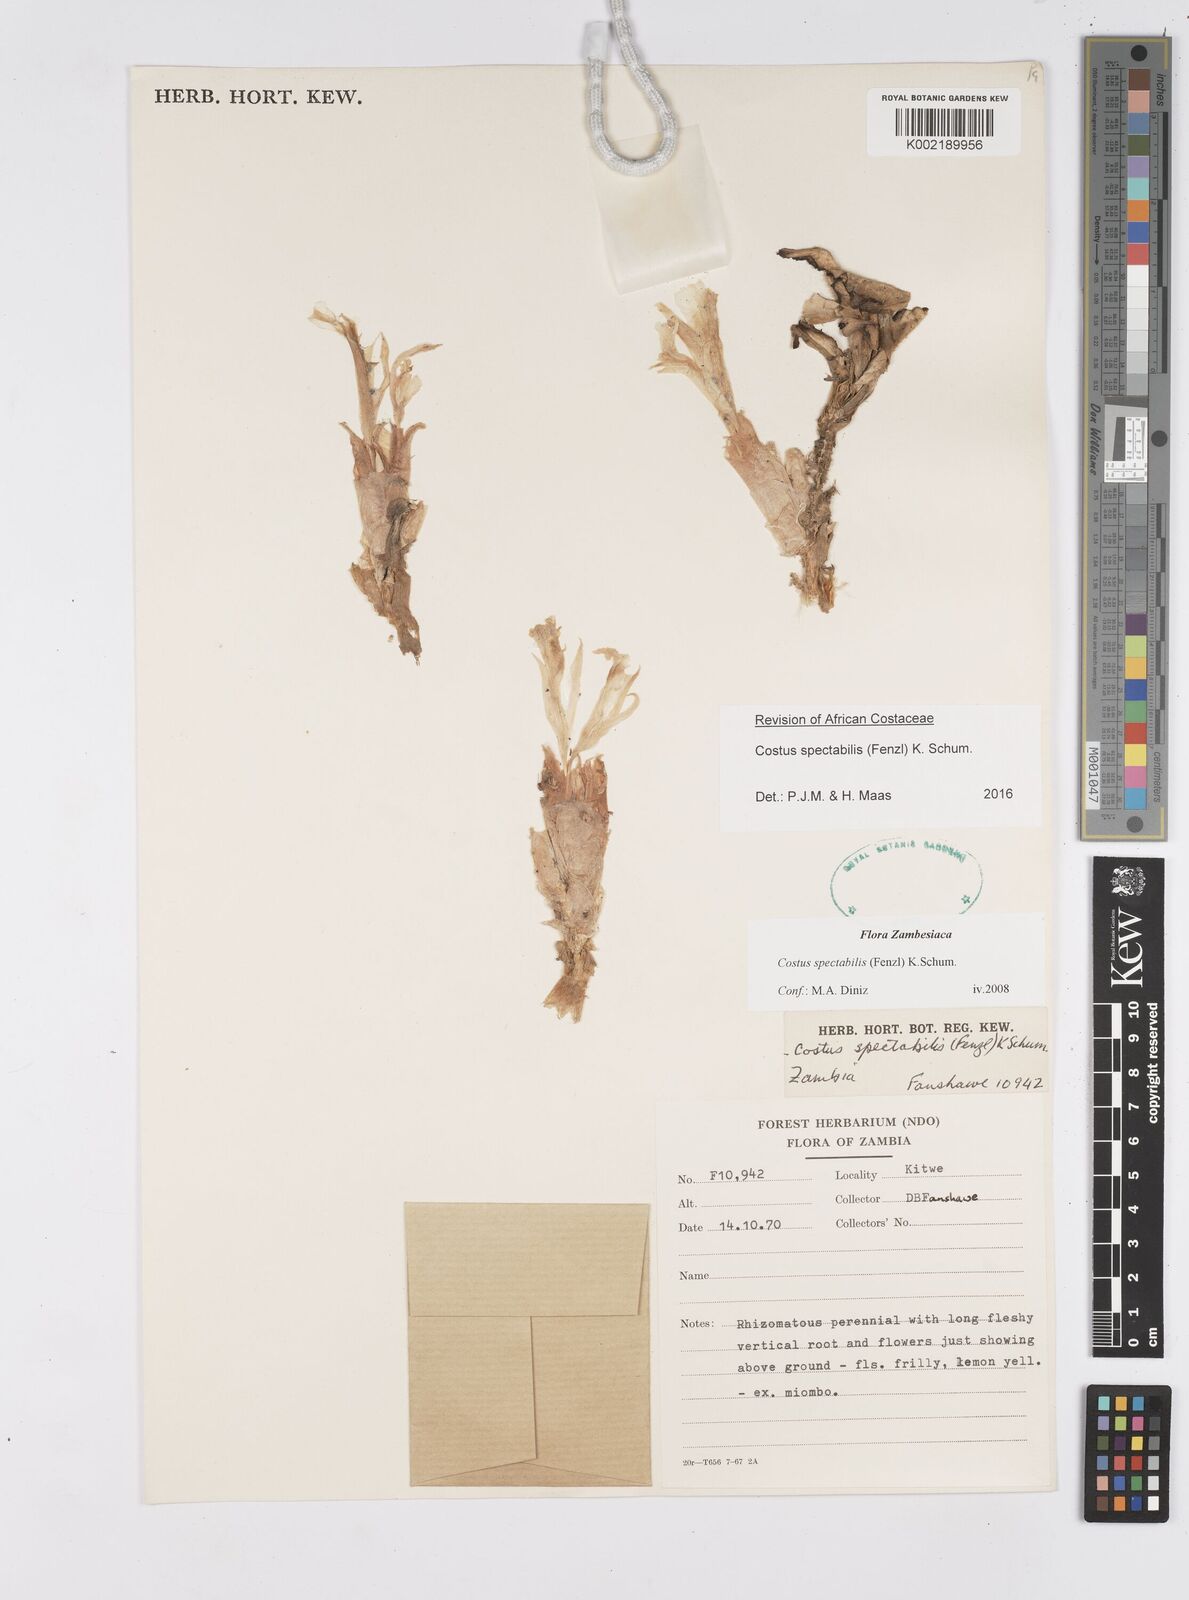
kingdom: Plantae
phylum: Tracheophyta
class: Liliopsida
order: Zingiberales
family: Costaceae
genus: Costus
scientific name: Costus spectabilis
